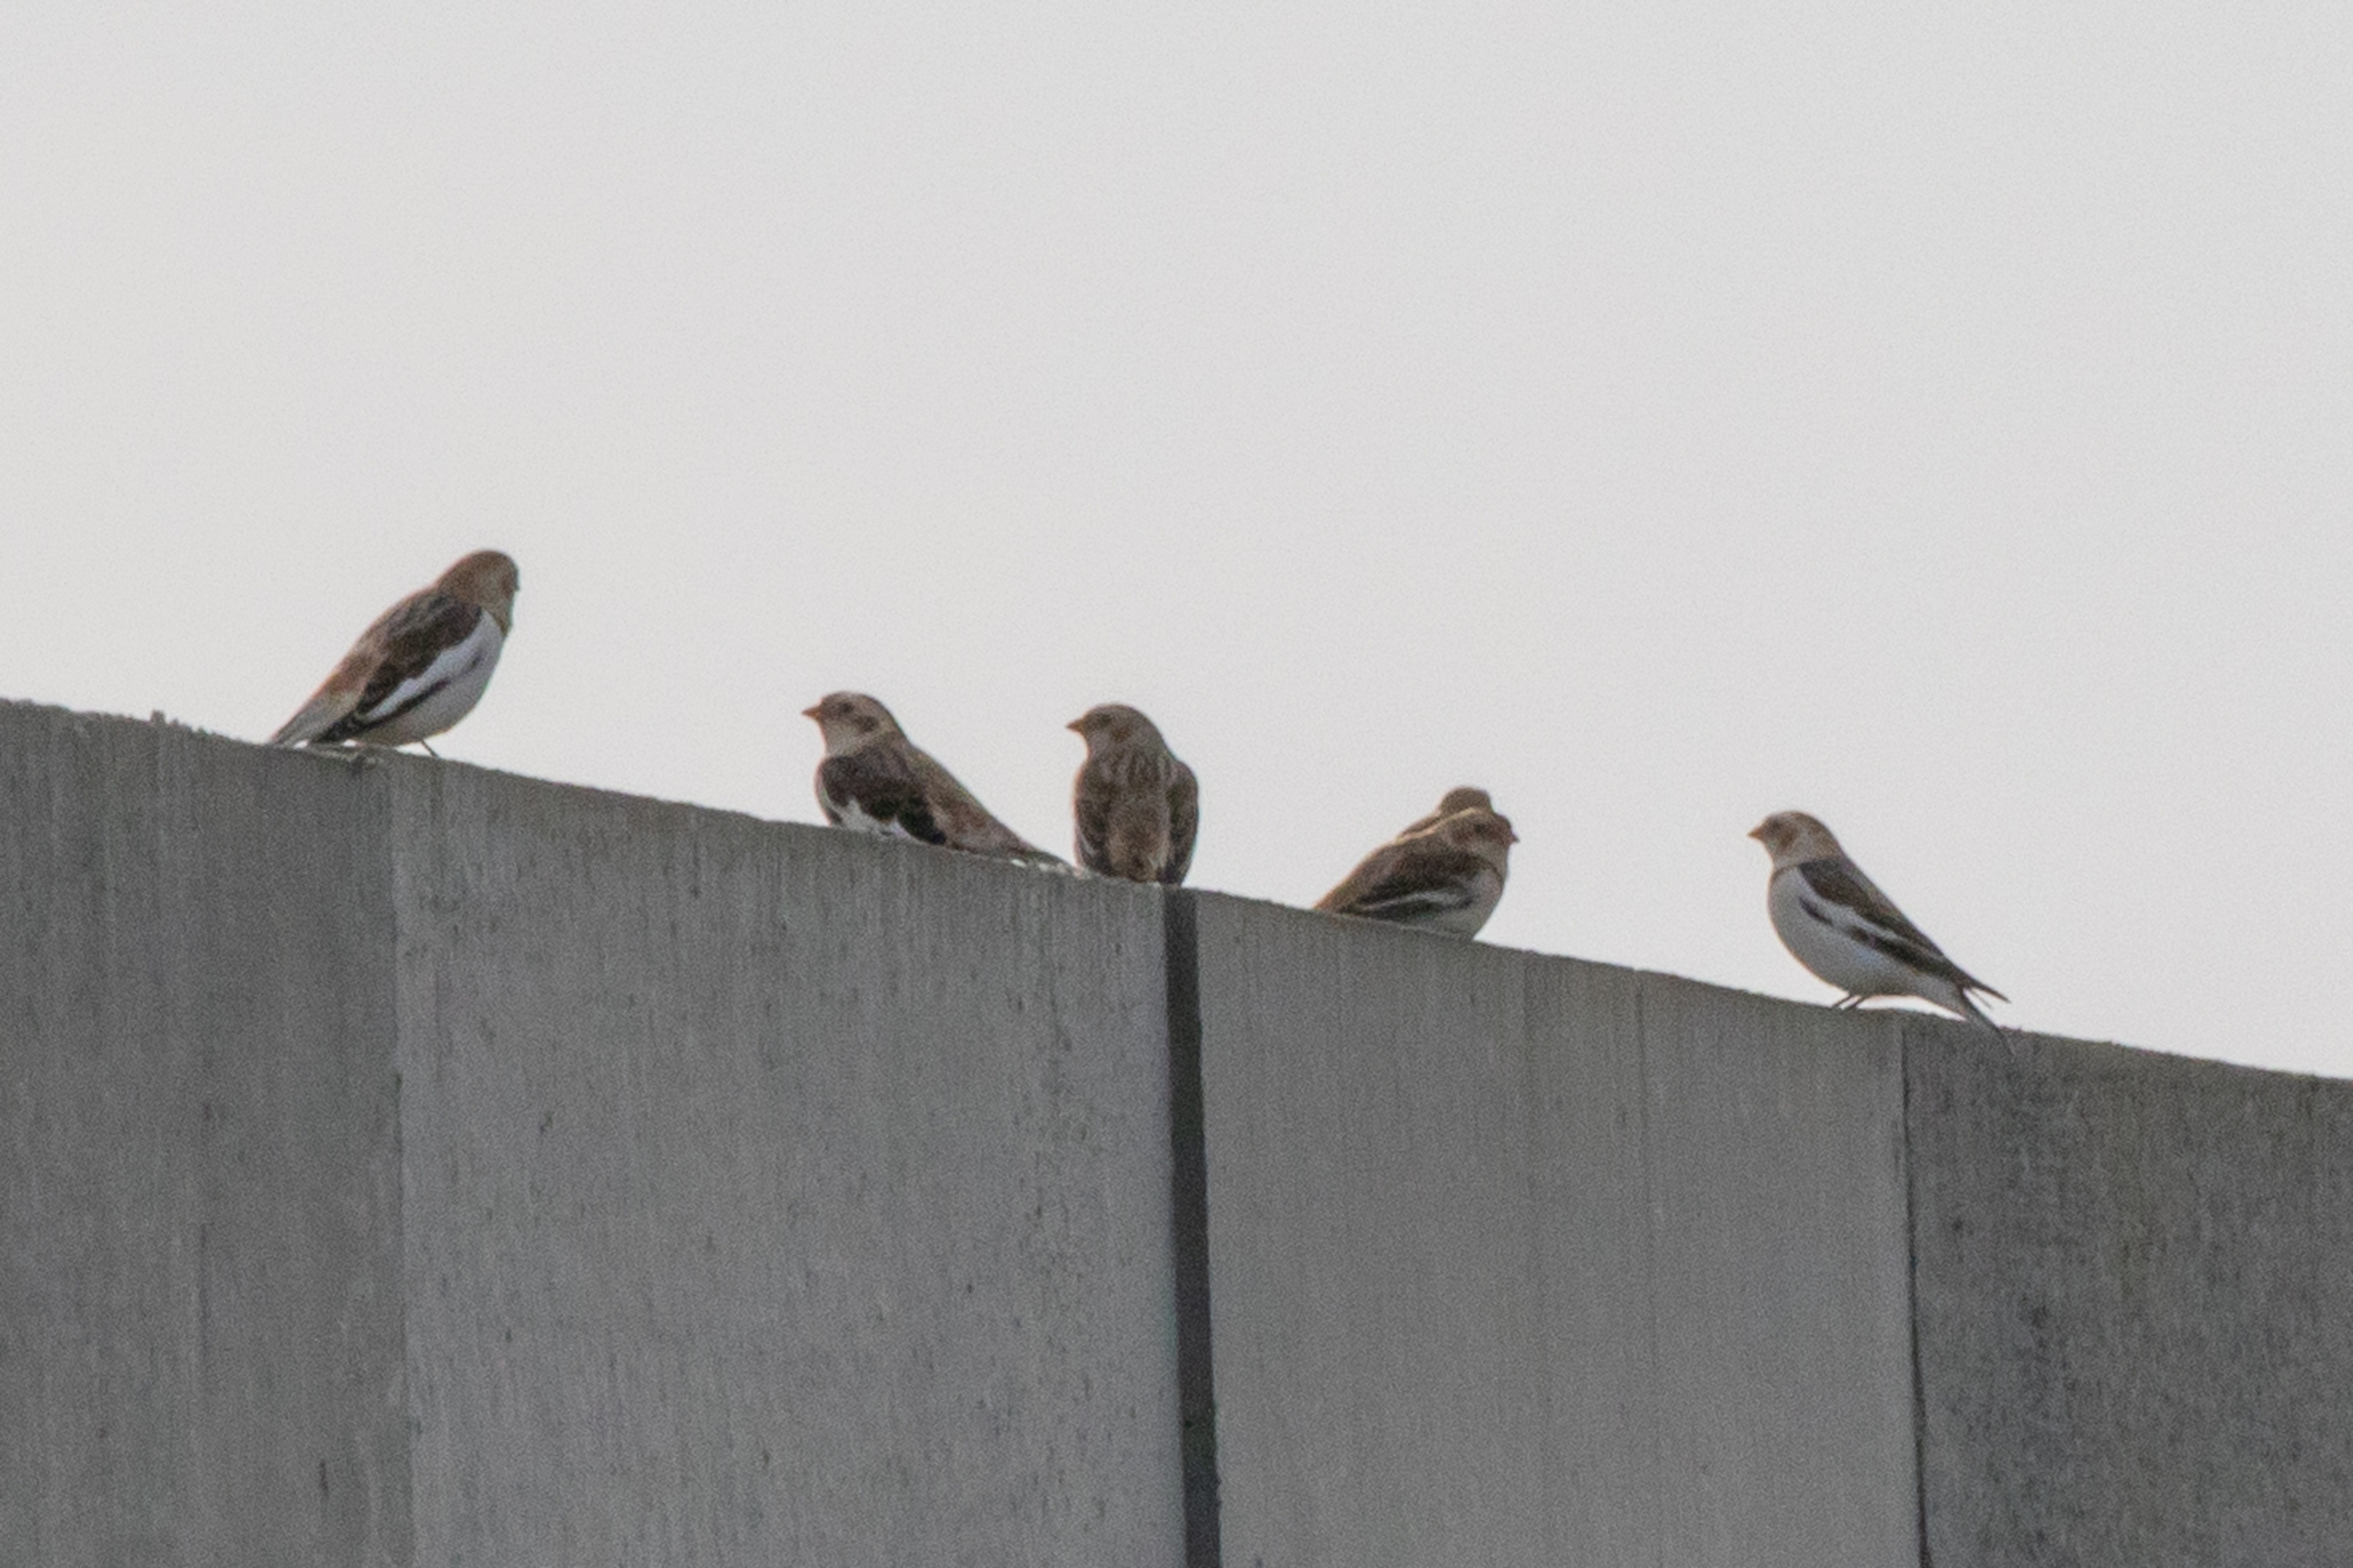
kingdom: Animalia
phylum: Chordata
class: Aves
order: Passeriformes
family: Calcariidae
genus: Plectrophenax
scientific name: Plectrophenax nivalis
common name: Snespurv
